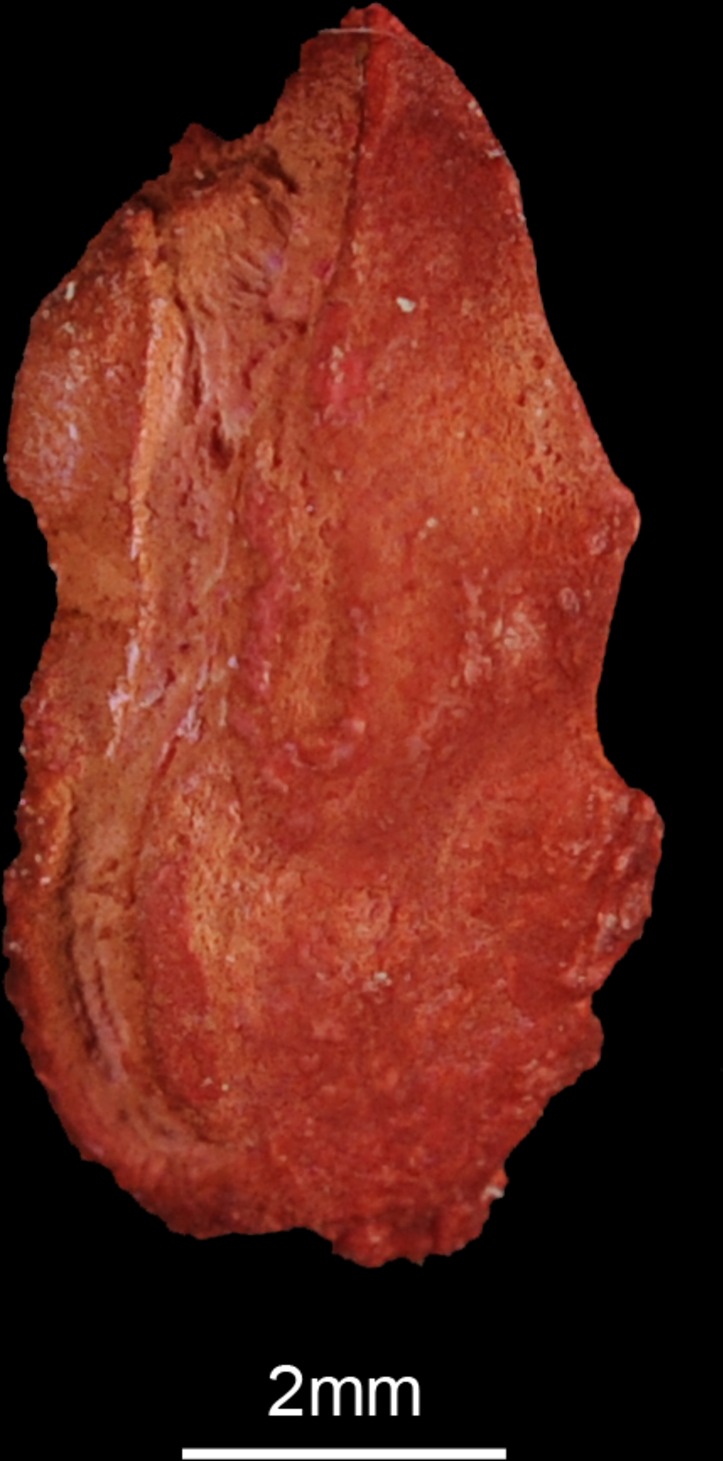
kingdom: Animalia
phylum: Chordata
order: Mugiliformes
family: Mugilidae
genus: Chelon
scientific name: Chelon richardsonii
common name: South african mullet
